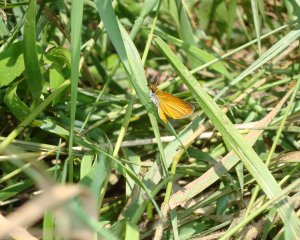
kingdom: Animalia
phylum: Arthropoda
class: Insecta
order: Lepidoptera
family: Hesperiidae
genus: Ancyloxypha
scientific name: Ancyloxypha numitor
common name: Least Skipper
